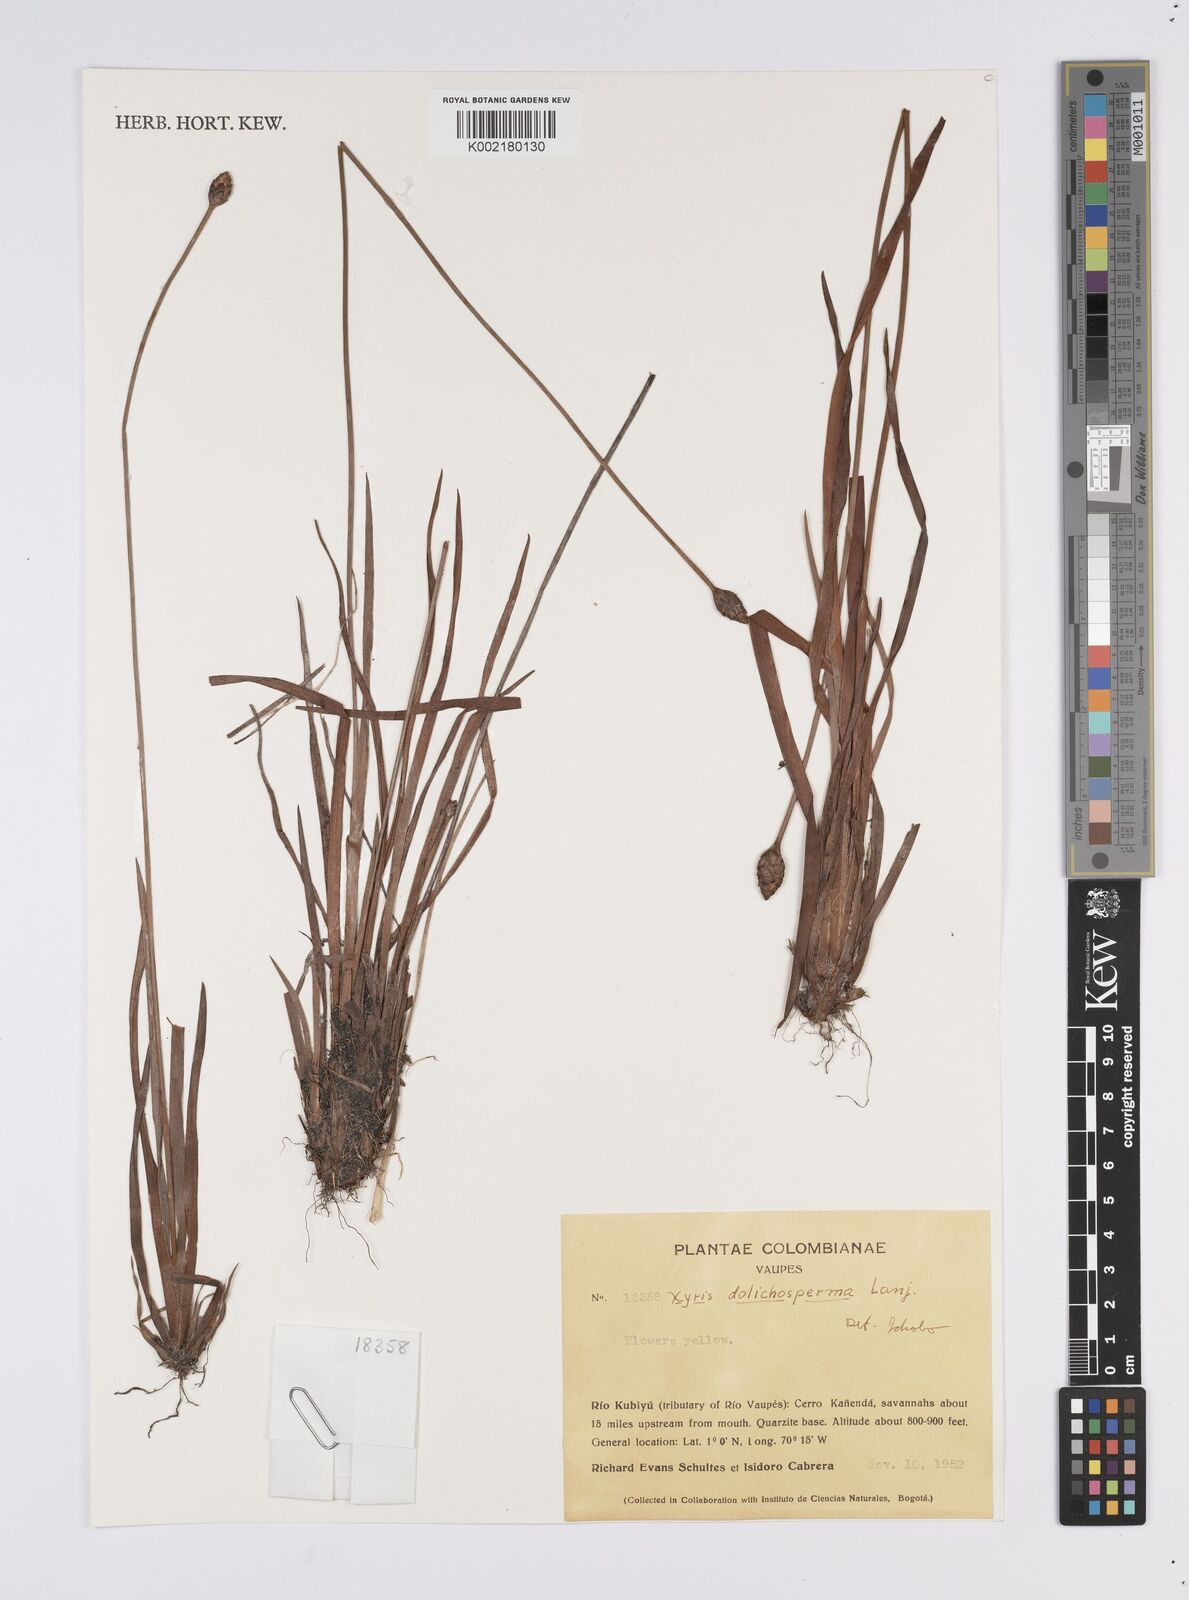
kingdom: Plantae
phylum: Tracheophyta
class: Liliopsida
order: Poales
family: Xyridaceae
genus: Xyris
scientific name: Xyris fallax
